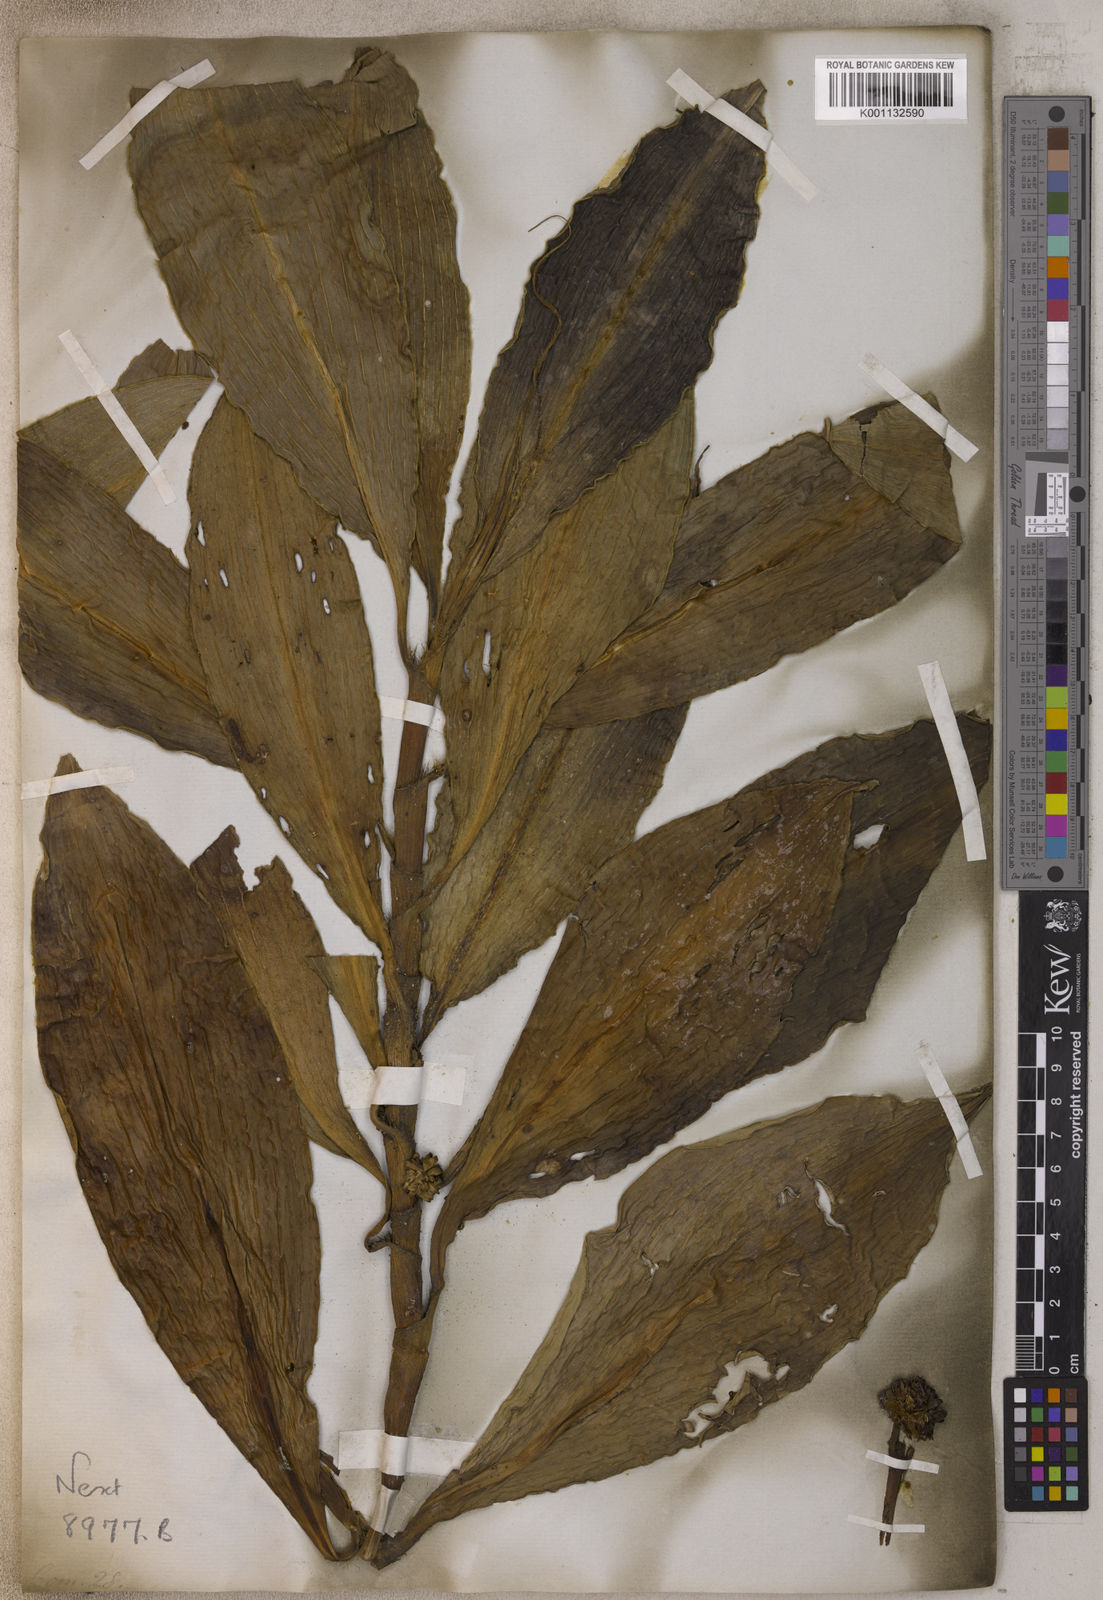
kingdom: Plantae
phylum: Tracheophyta
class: Liliopsida
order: Commelinales
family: Commelinaceae
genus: Tradescantia
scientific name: Tradescantia
